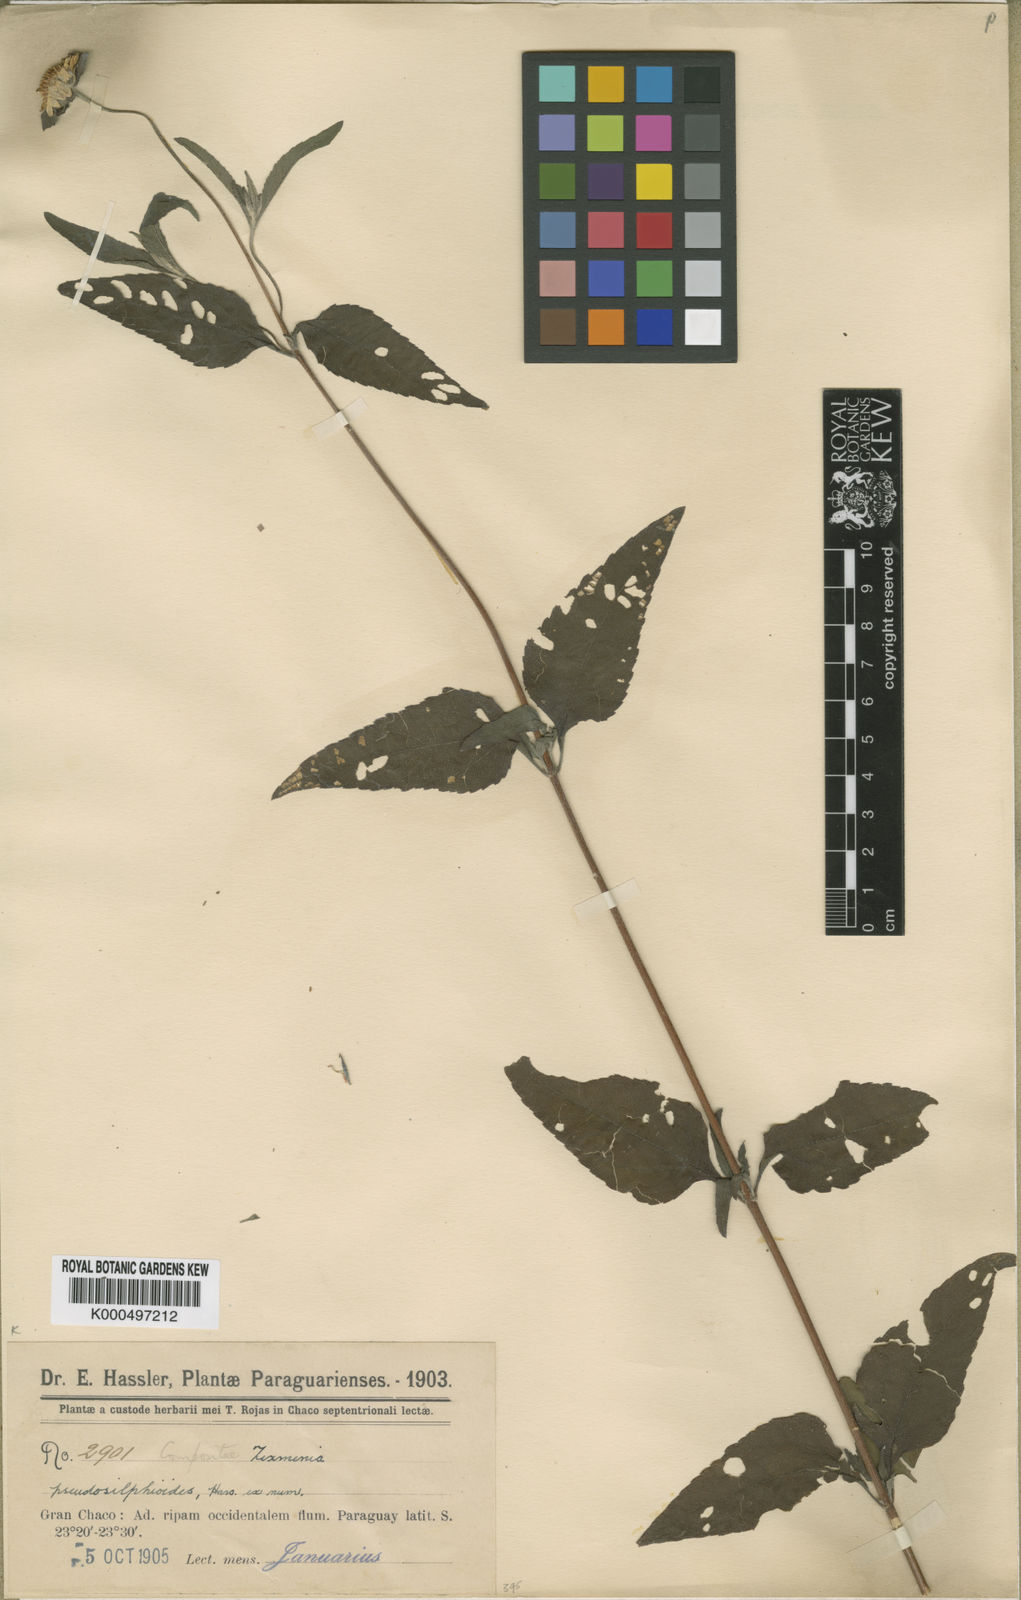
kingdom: Plantae
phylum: Tracheophyta
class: Magnoliopsida
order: Asterales
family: Asteraceae
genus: Dimerostemma
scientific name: Dimerostemma pseudosilphioides
